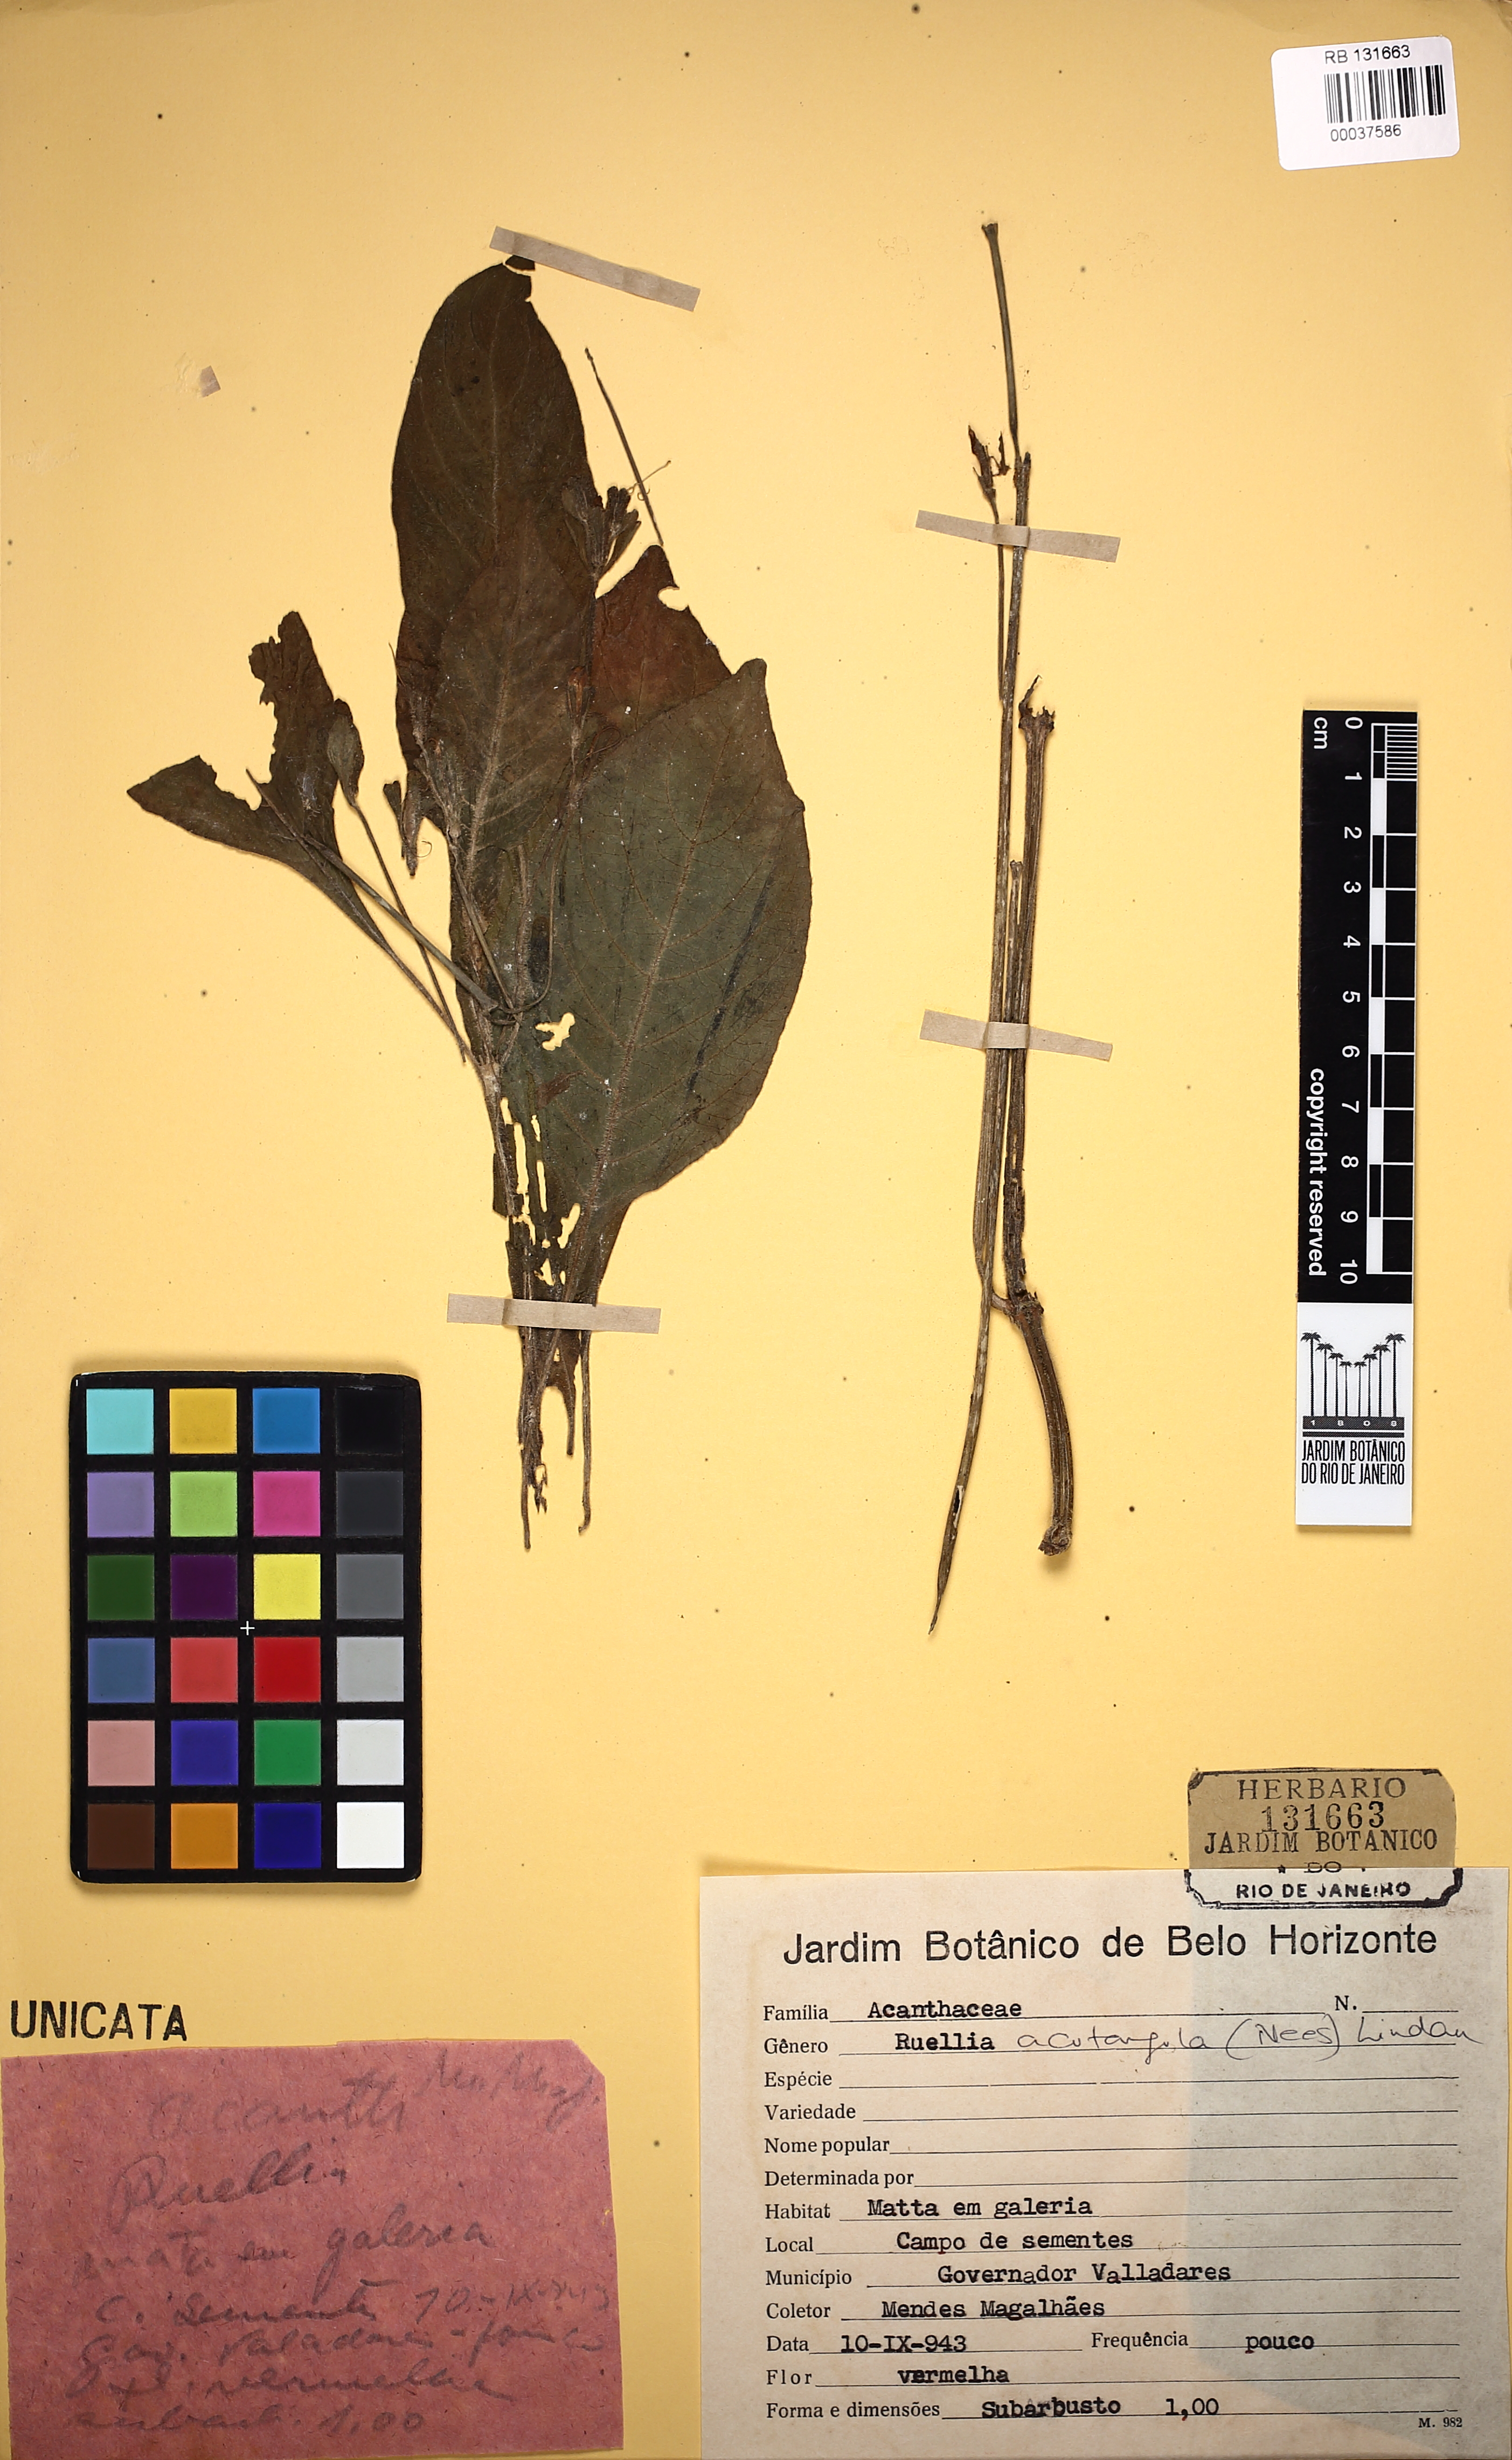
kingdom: Plantae
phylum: Tracheophyta
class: Magnoliopsida
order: Lamiales
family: Acanthaceae
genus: Ruellia
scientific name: Ruellia sceptrum-marianum
